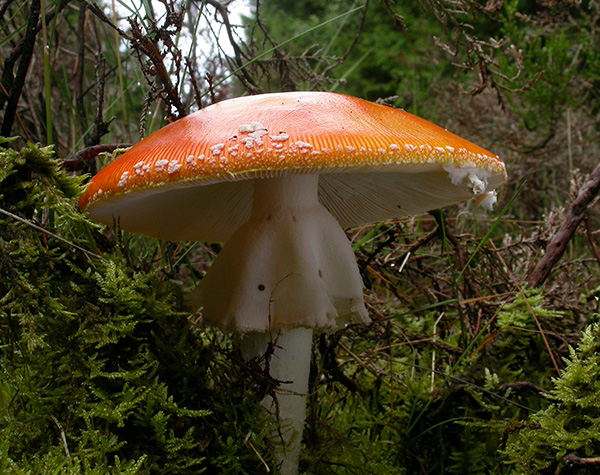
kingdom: Fungi
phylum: Basidiomycota
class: Agaricomycetes
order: Agaricales
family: Amanitaceae
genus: Amanita
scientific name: Amanita muscaria
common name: rød fluesvamp
